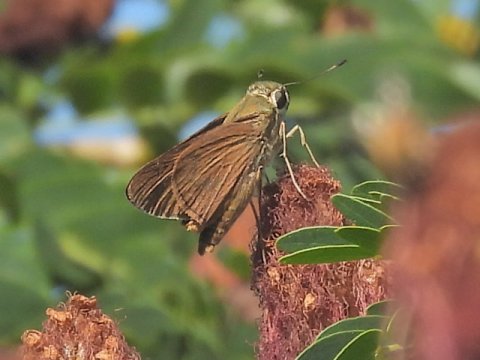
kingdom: Animalia
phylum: Arthropoda
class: Insecta
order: Lepidoptera
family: Hesperiidae
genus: Calpodes
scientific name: Calpodes ethlius
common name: Brazilian Skipper
